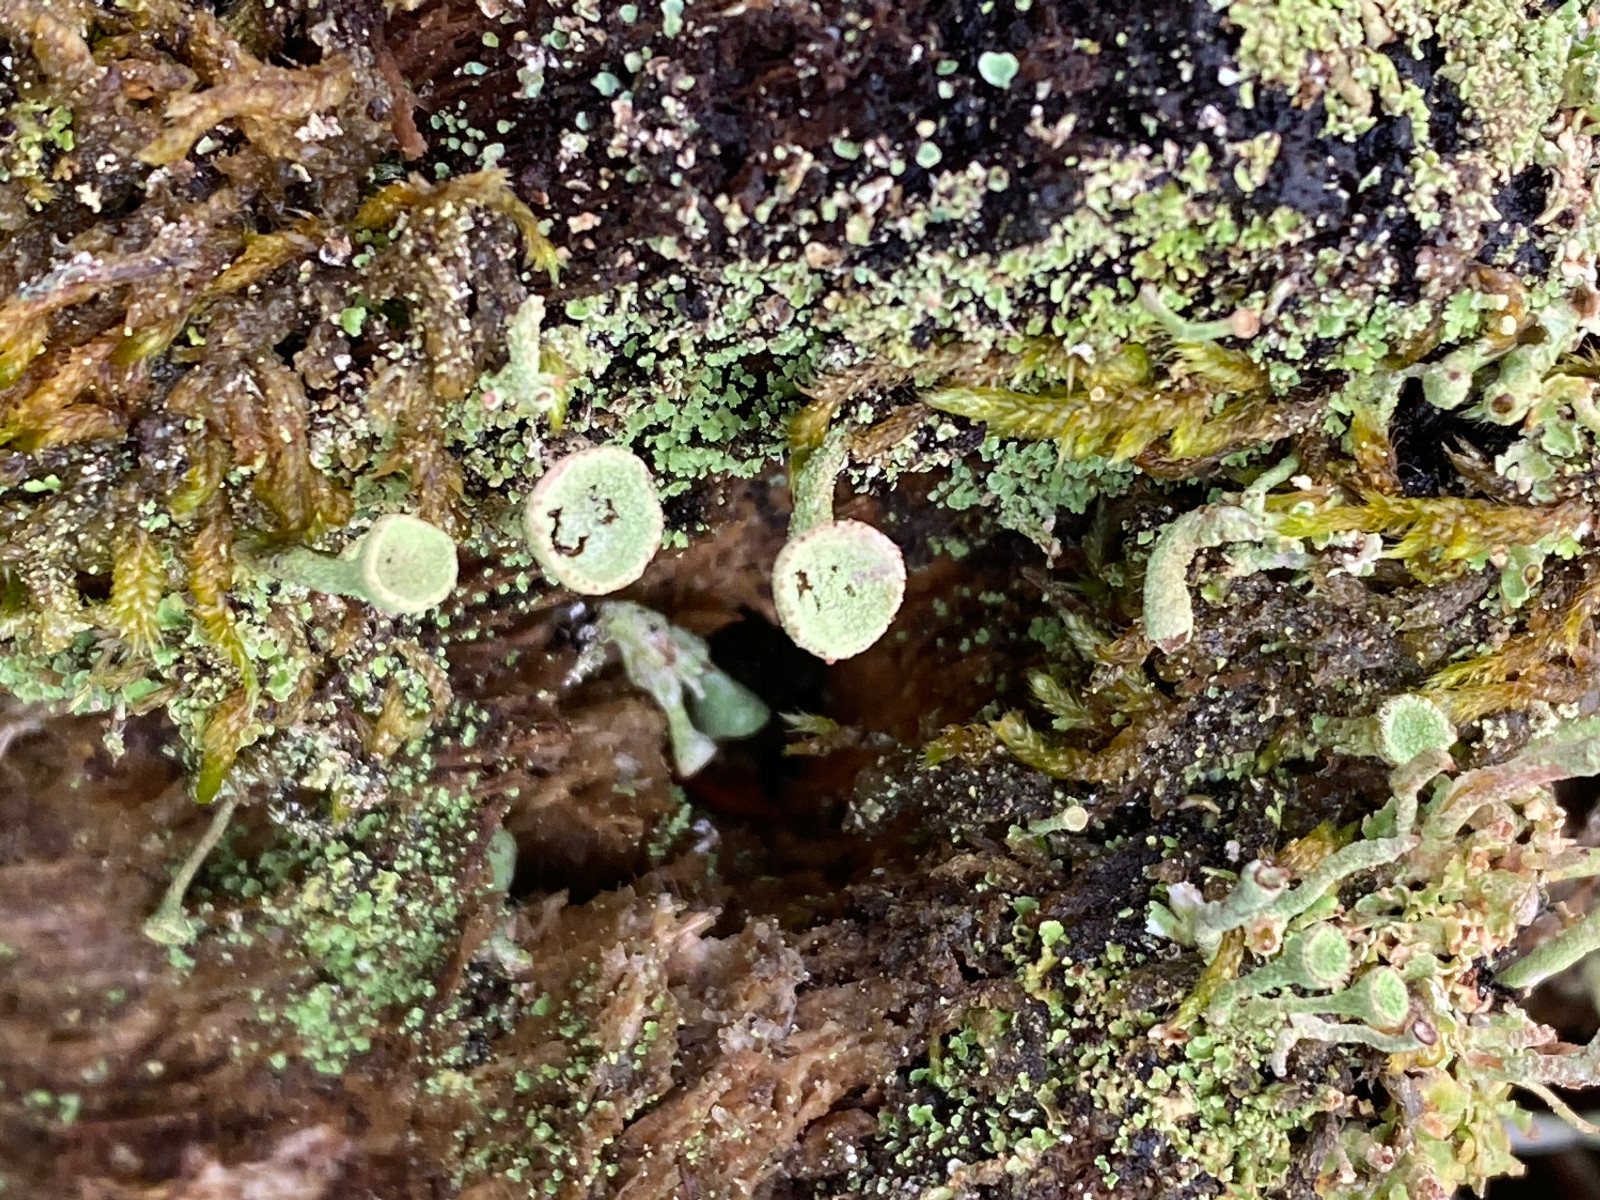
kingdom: Fungi
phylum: Ascomycota
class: Lecanoromycetes
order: Lecanorales
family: Cladoniaceae
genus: Cladonia
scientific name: Cladonia
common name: brungrøn bægerlav
